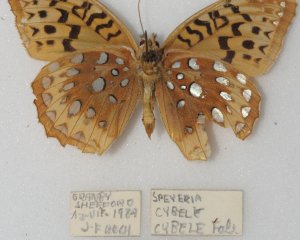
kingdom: Animalia
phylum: Arthropoda
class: Insecta
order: Lepidoptera
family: Nymphalidae
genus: Speyeria
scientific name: Speyeria cybele
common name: Great Spangled Fritillary
